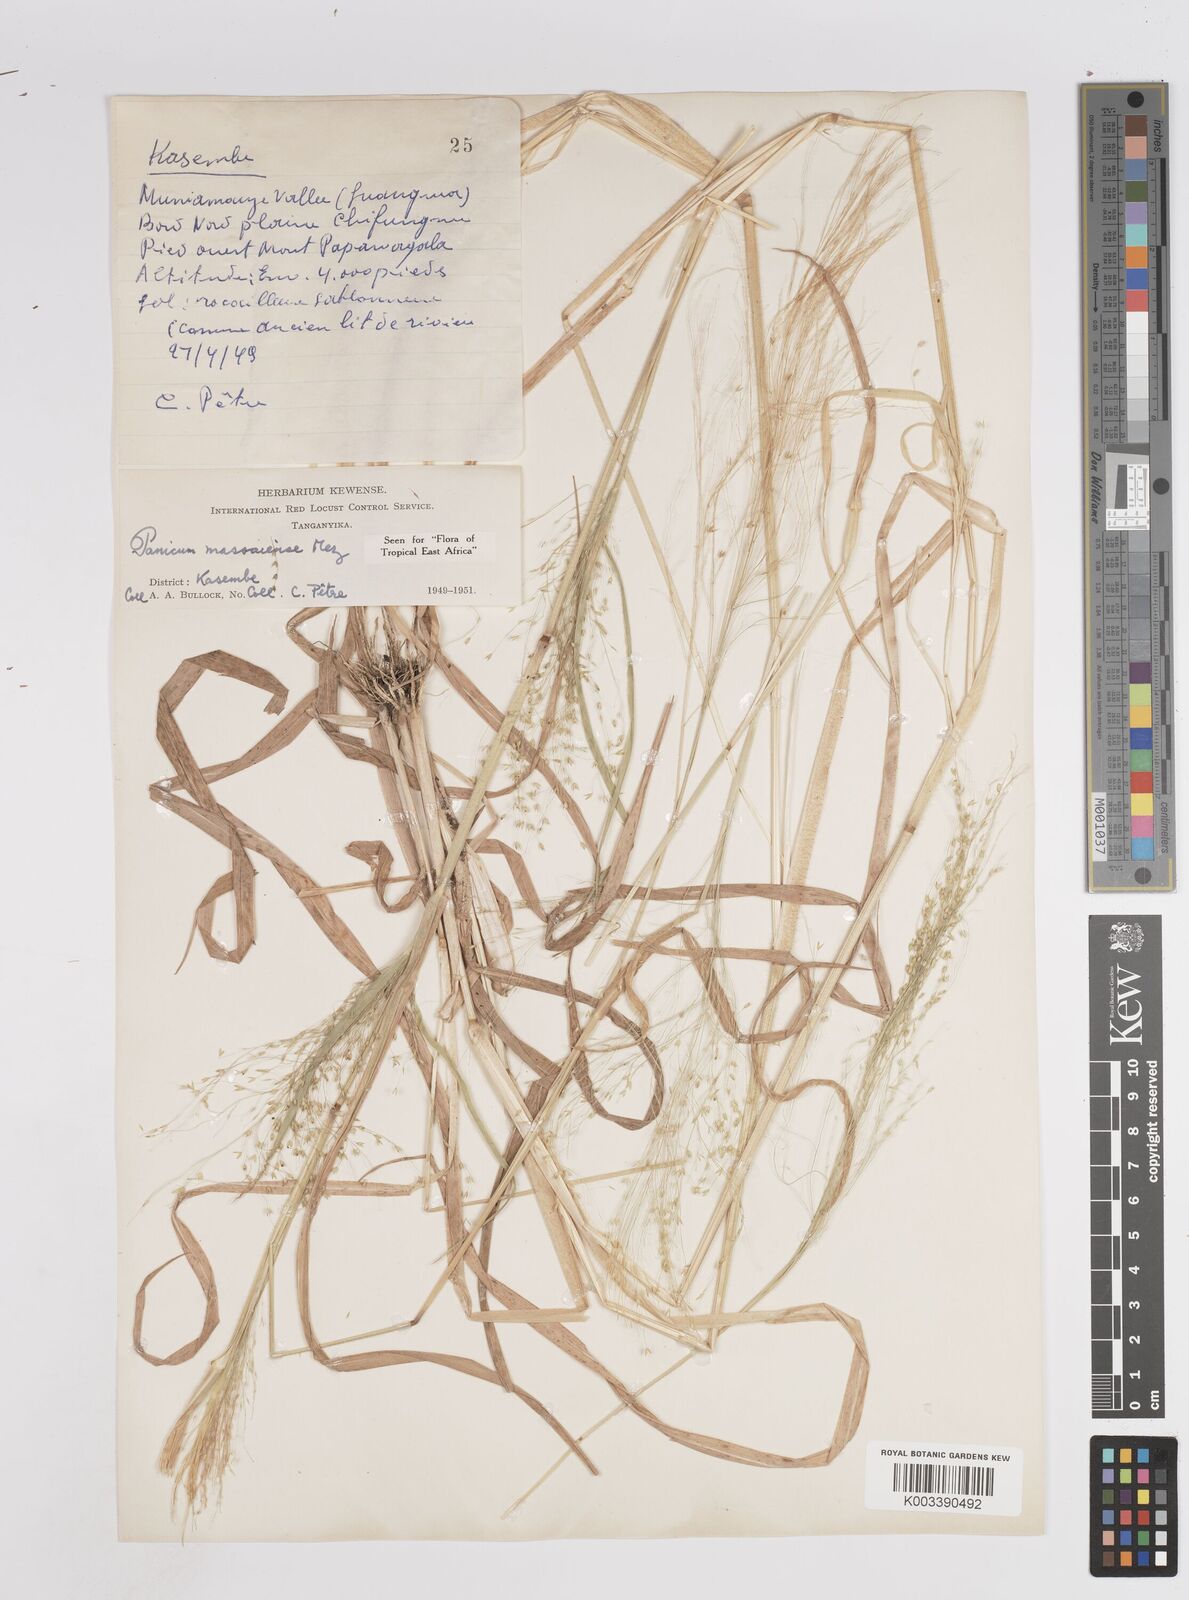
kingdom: Plantae
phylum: Tracheophyta
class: Liliopsida
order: Poales
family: Poaceae
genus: Panicum
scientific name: Panicum massaiense
